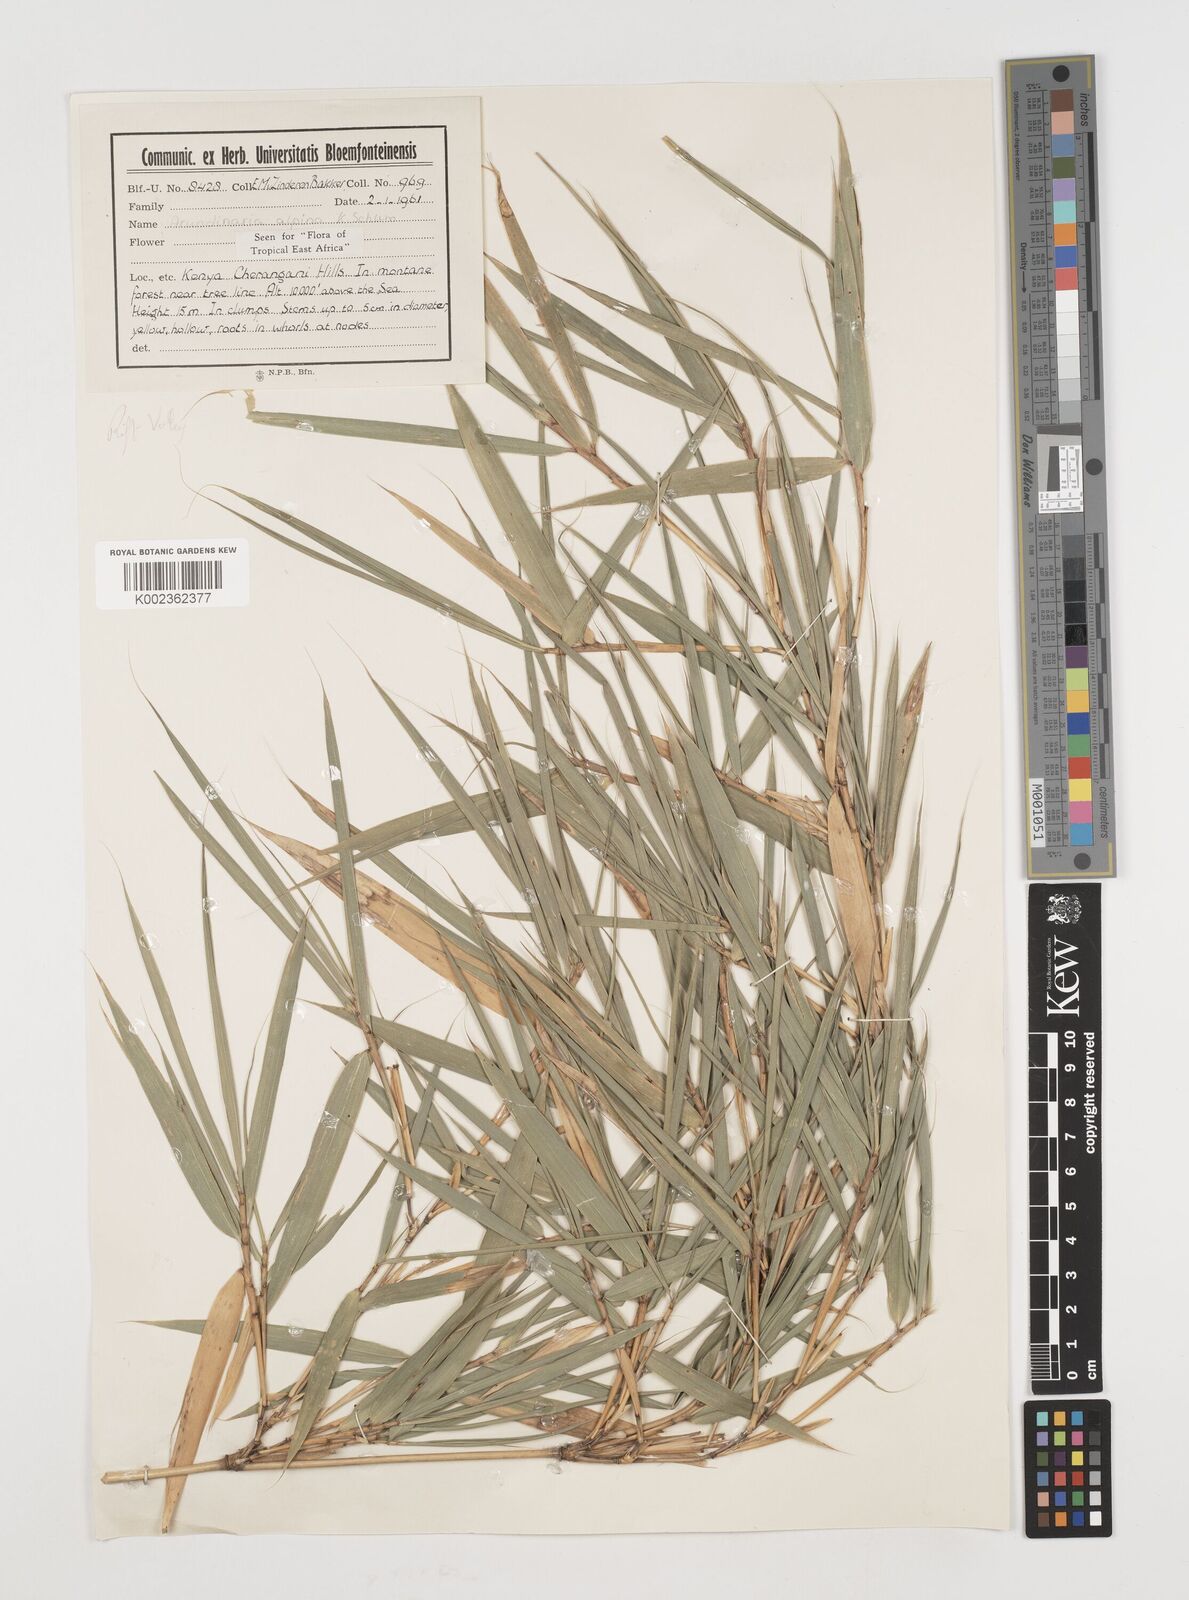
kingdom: Plantae
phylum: Tracheophyta
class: Liliopsida
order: Poales
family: Poaceae
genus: Oldeania
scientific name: Oldeania alpina
